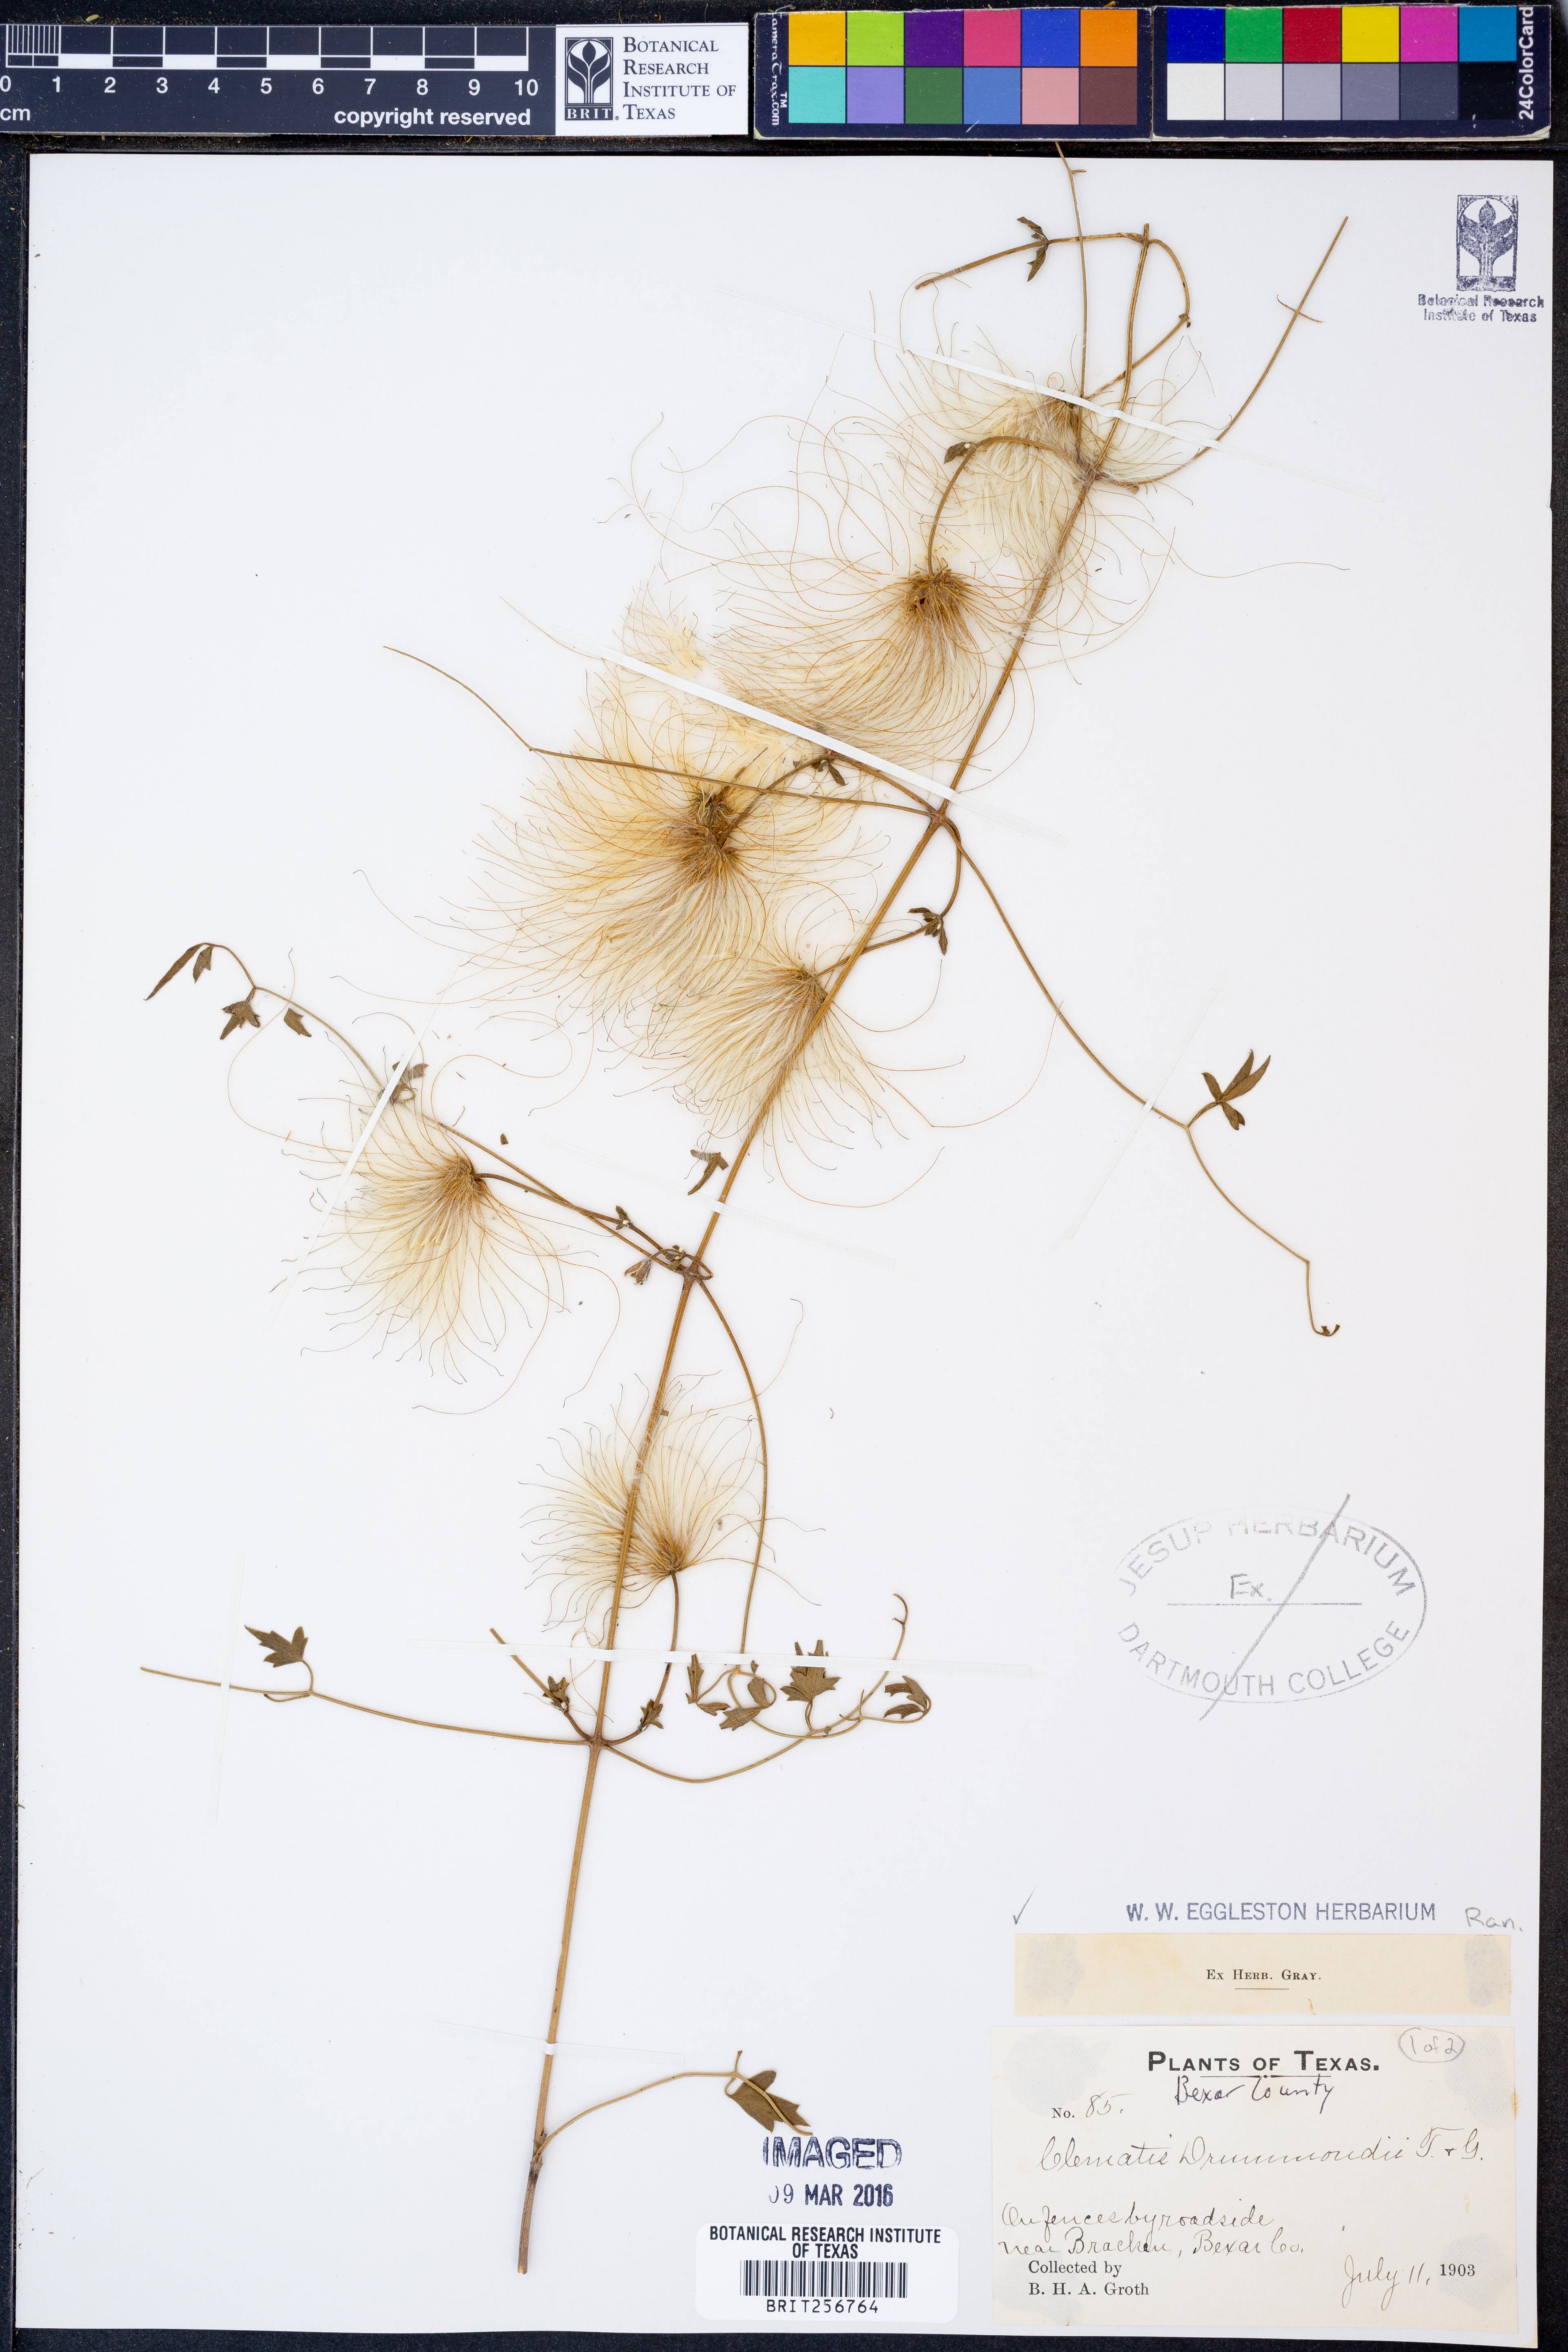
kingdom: Plantae
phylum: Tracheophyta
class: Magnoliopsida
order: Ranunculales
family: Ranunculaceae
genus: Clematis
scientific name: Clematis drummondii
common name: Texas virgin's bower
